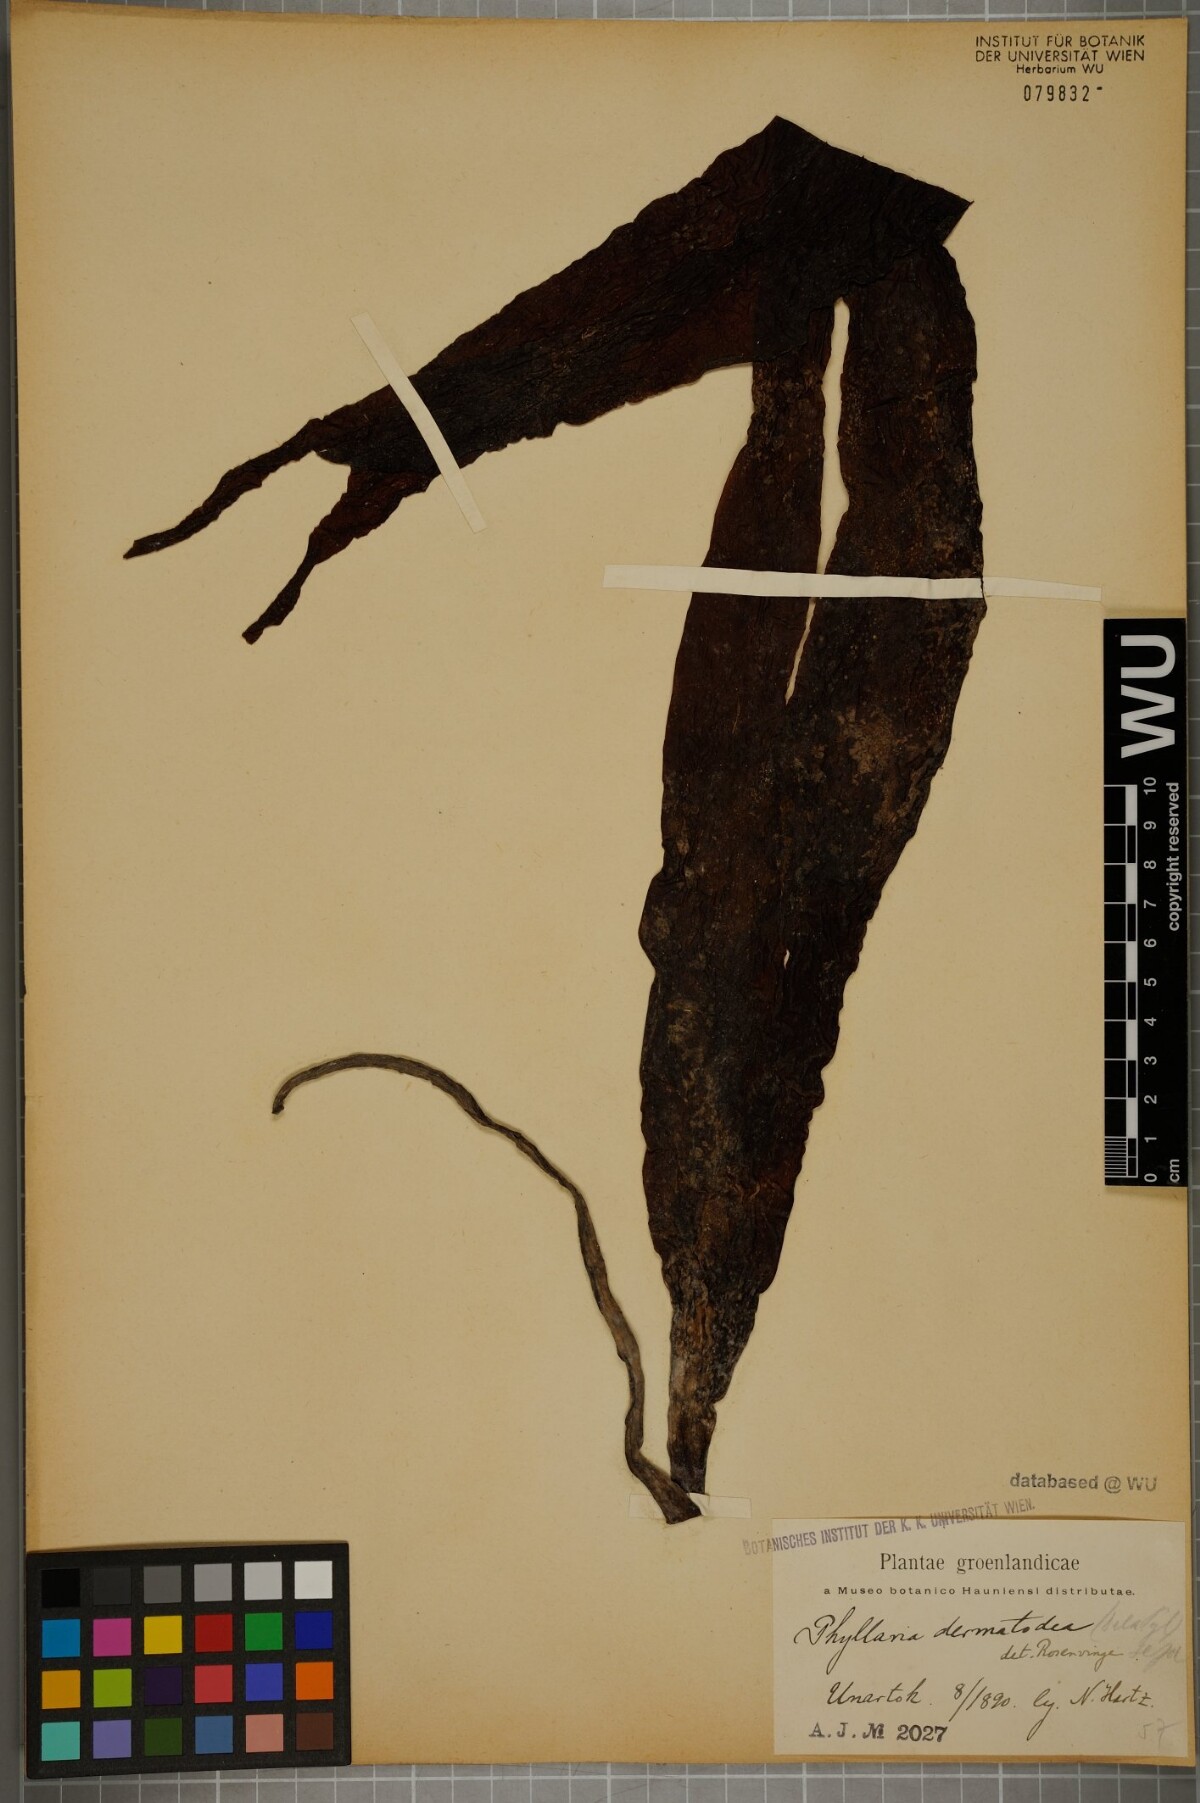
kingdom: Chromista
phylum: Ochrophyta
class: Phaeophyceae
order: Tilopteridales
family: Phyllariaceae
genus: Saccorhiza
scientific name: Saccorhiza dermatodea
